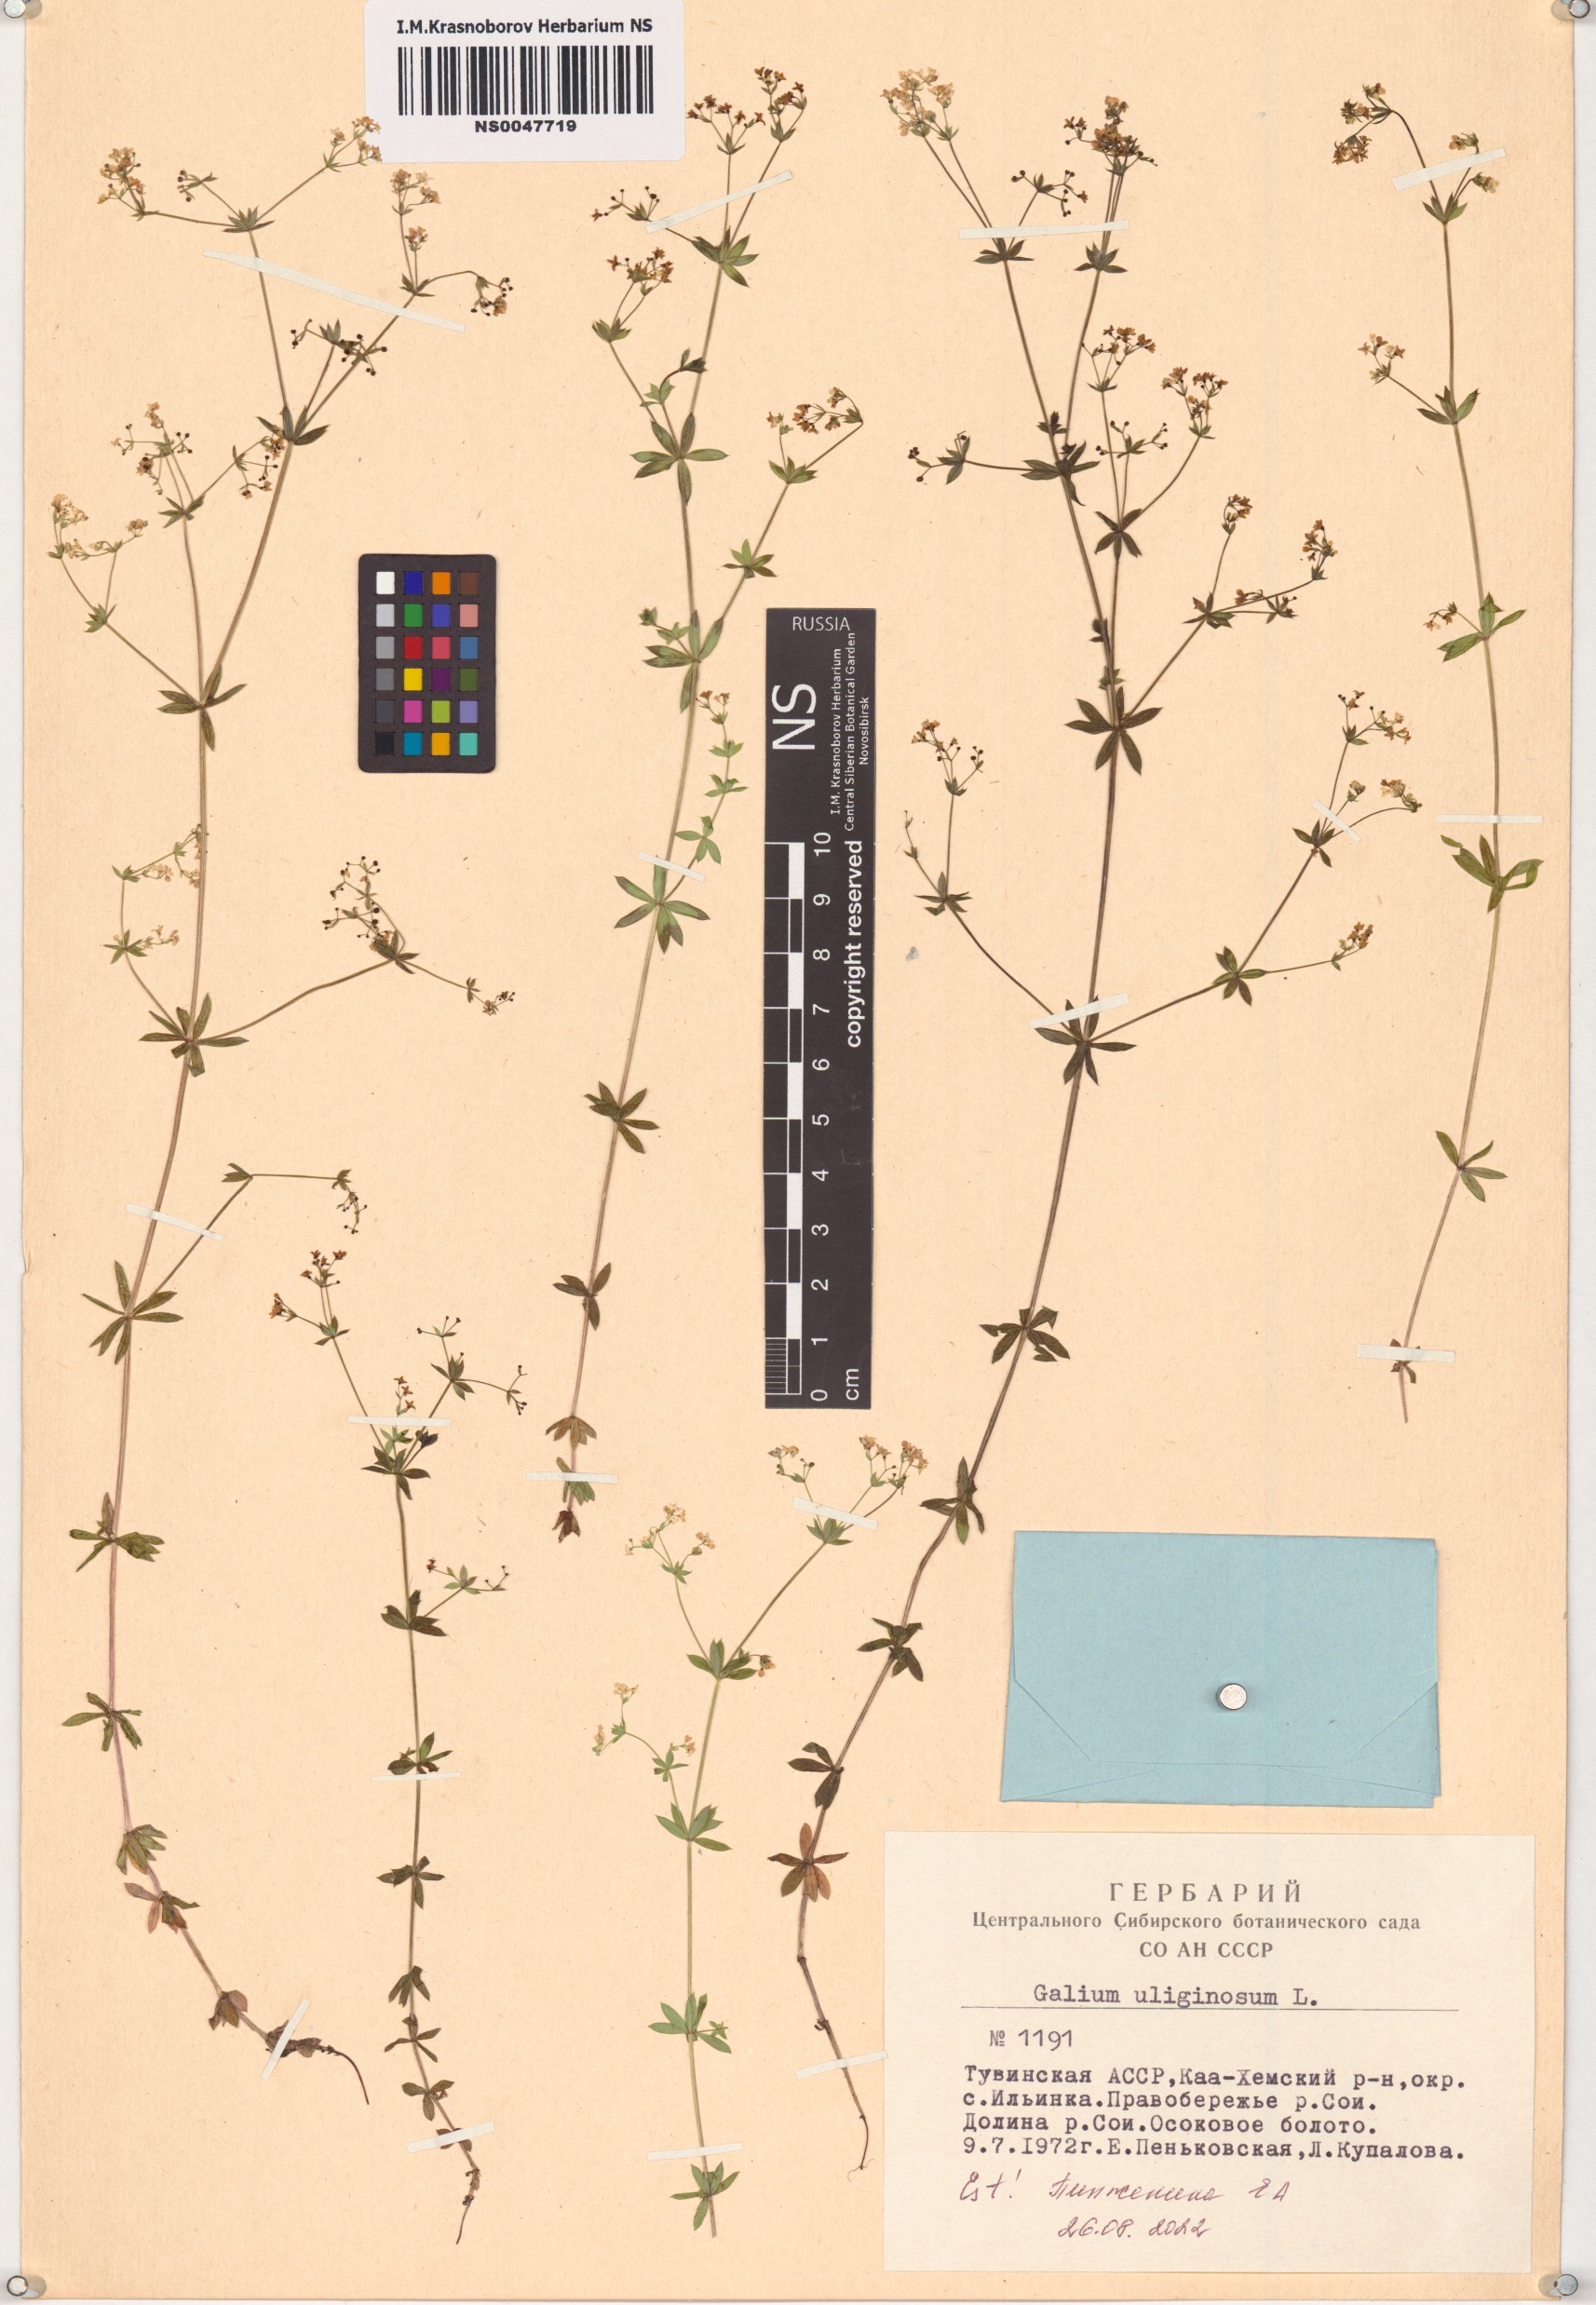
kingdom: Plantae
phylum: Tracheophyta
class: Magnoliopsida
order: Gentianales
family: Rubiaceae
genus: Galium
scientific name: Galium uliginosum
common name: Fen bedstraw
